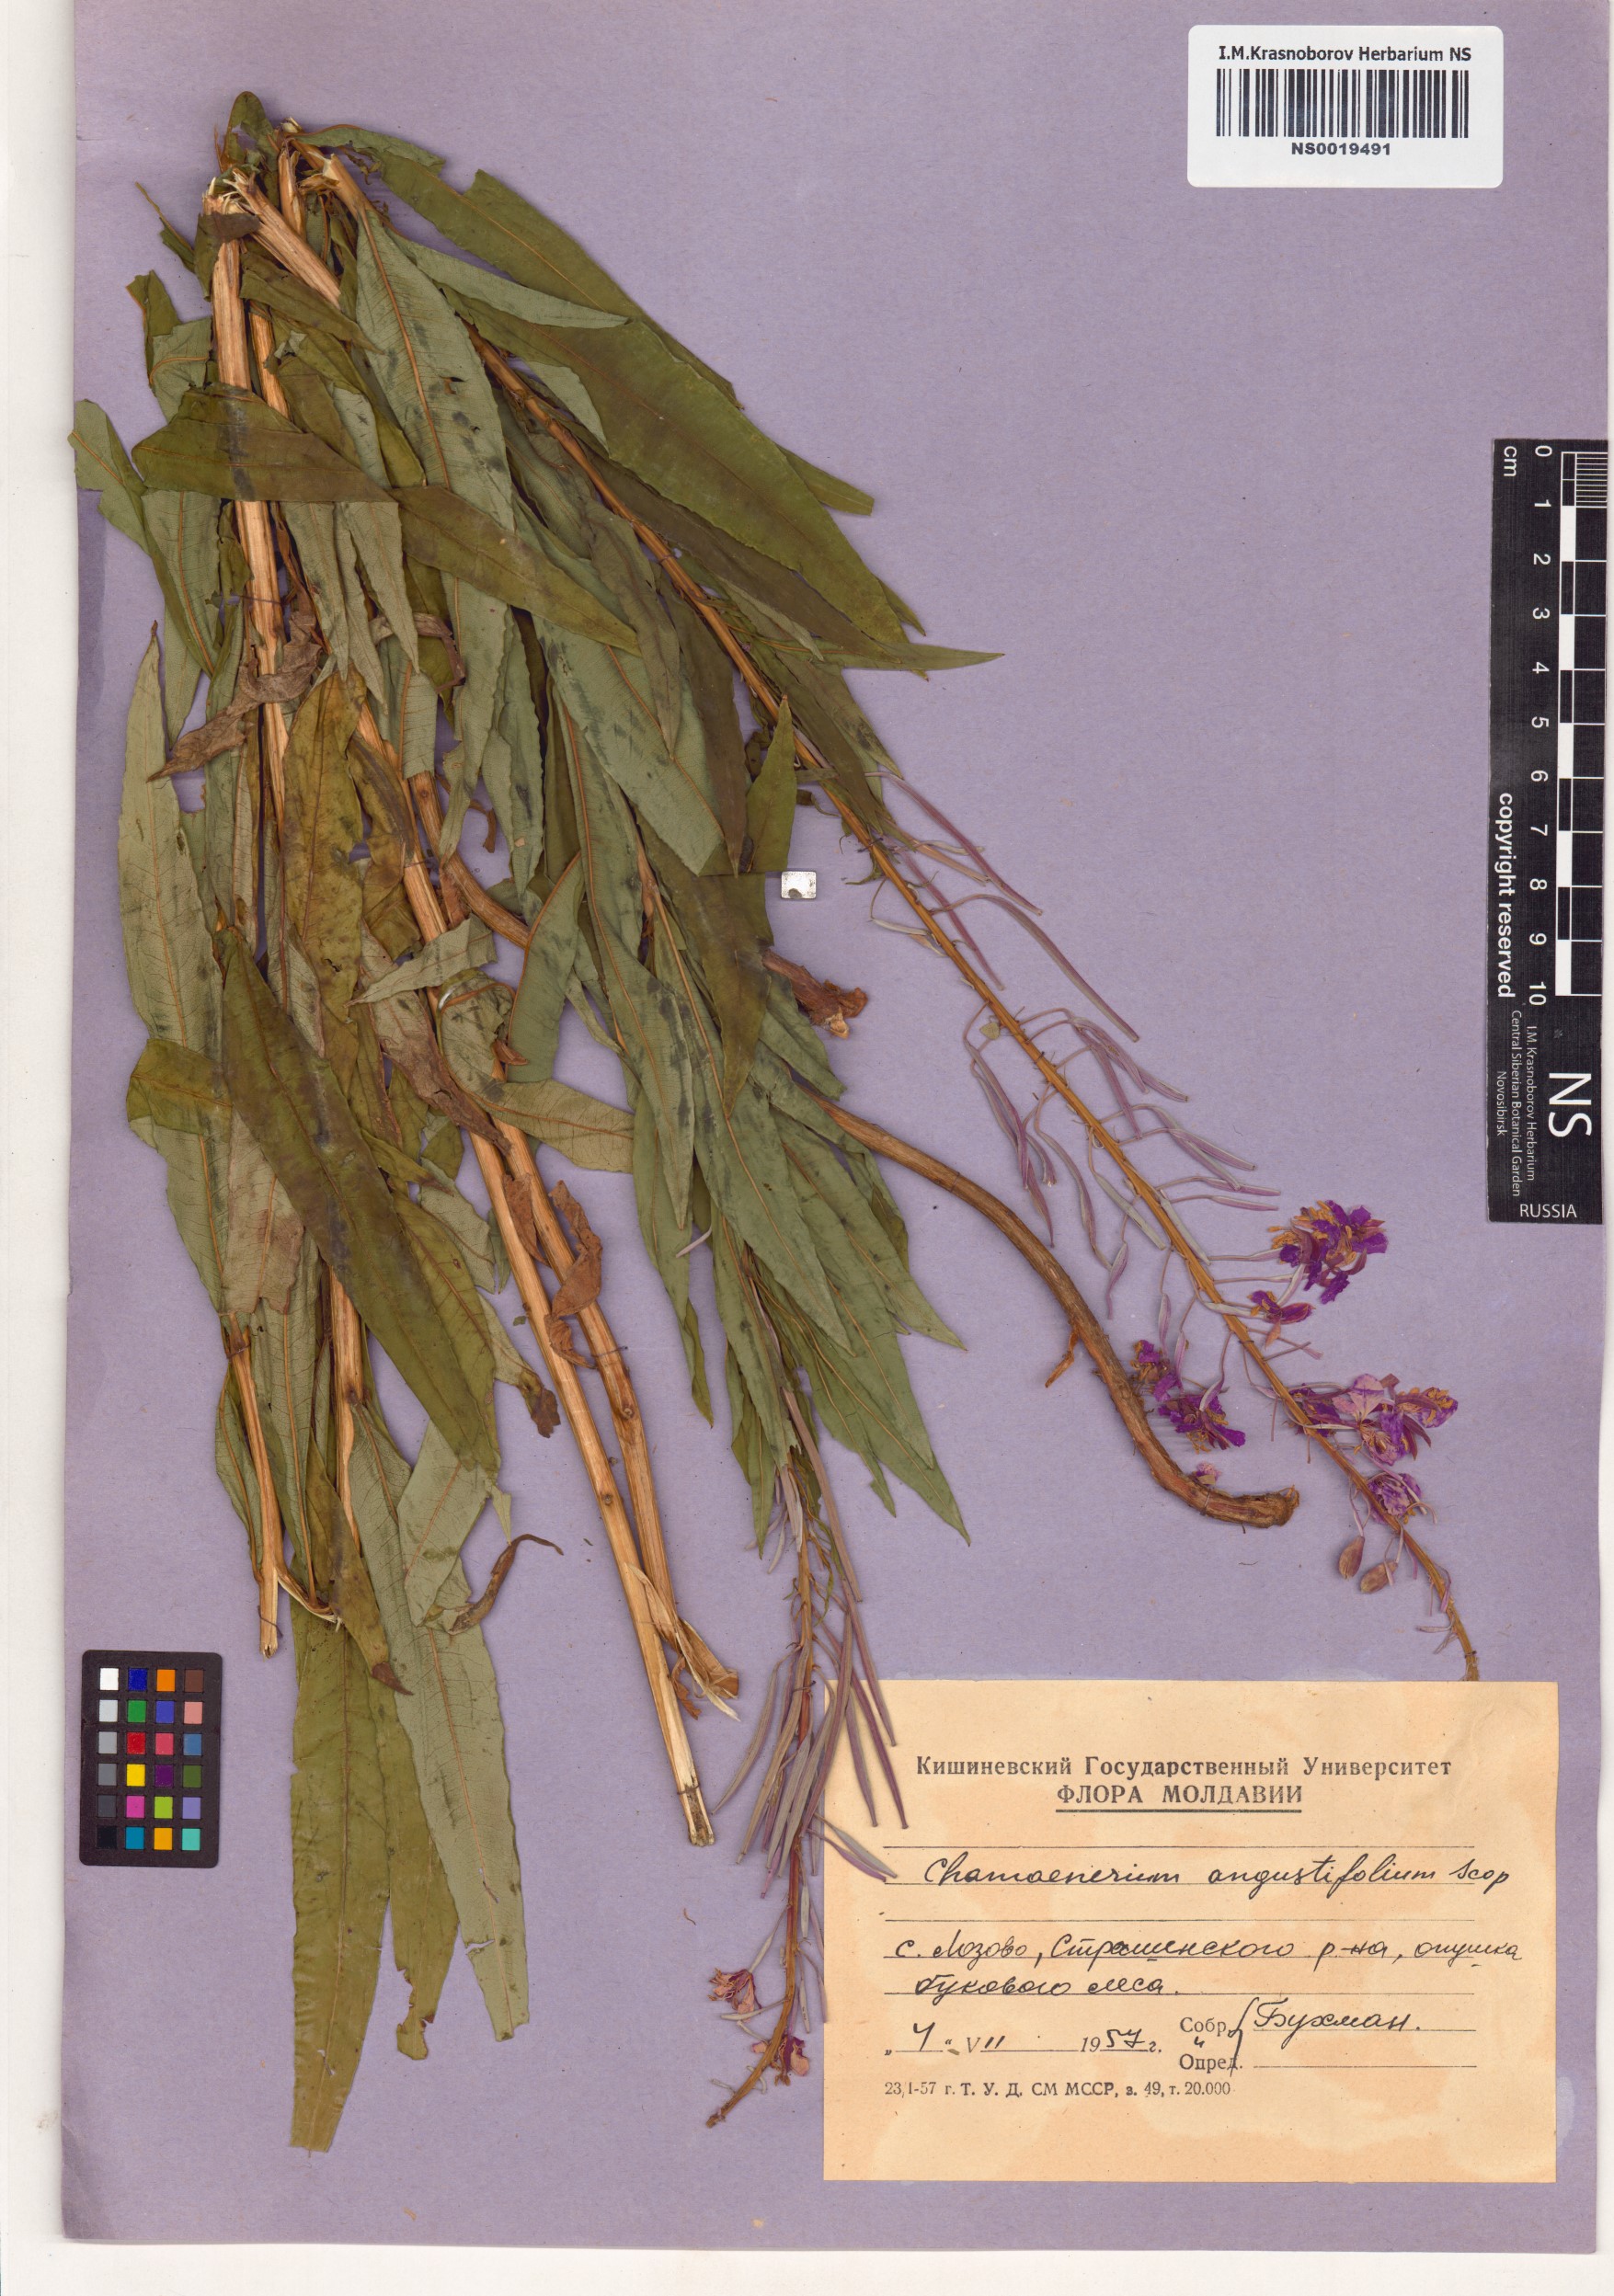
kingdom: Plantae
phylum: Tracheophyta
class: Magnoliopsida
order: Myrtales
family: Onagraceae
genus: Chamaenerion
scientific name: Chamaenerion angustifolium
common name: Fireweed
